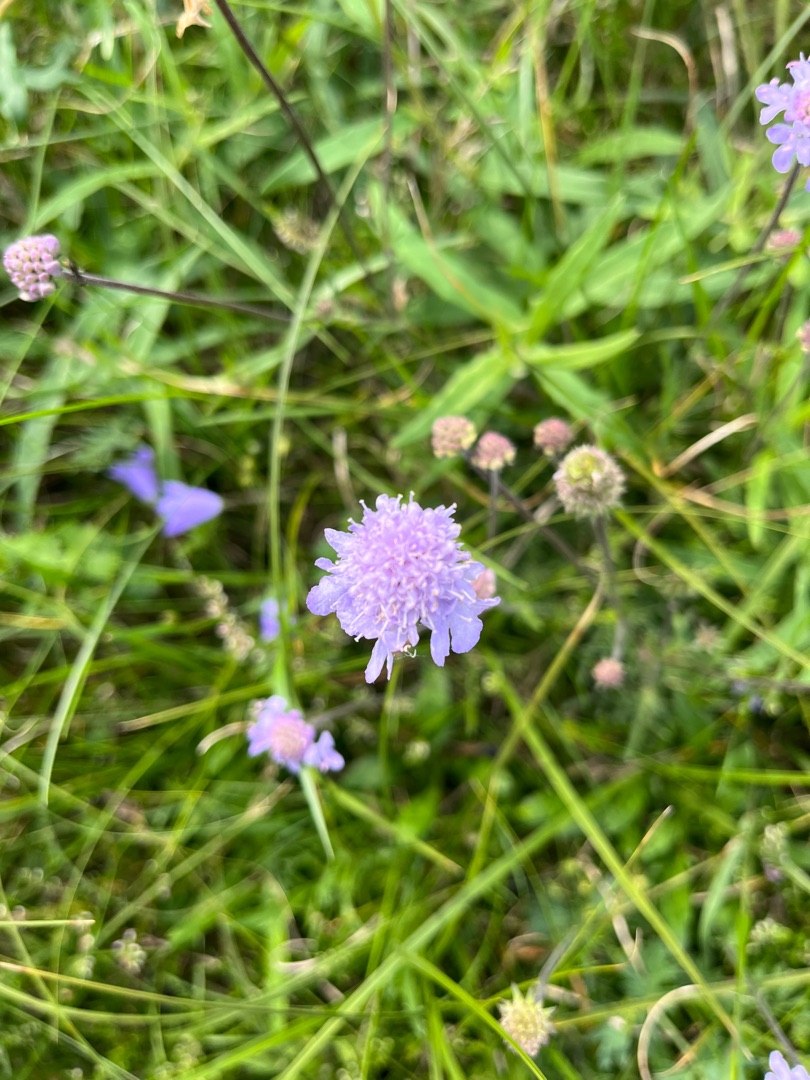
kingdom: Plantae
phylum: Tracheophyta
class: Magnoliopsida
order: Dipsacales
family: Caprifoliaceae
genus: Scabiosa
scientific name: Scabiosa canescens
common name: Vellugtende skabiose
